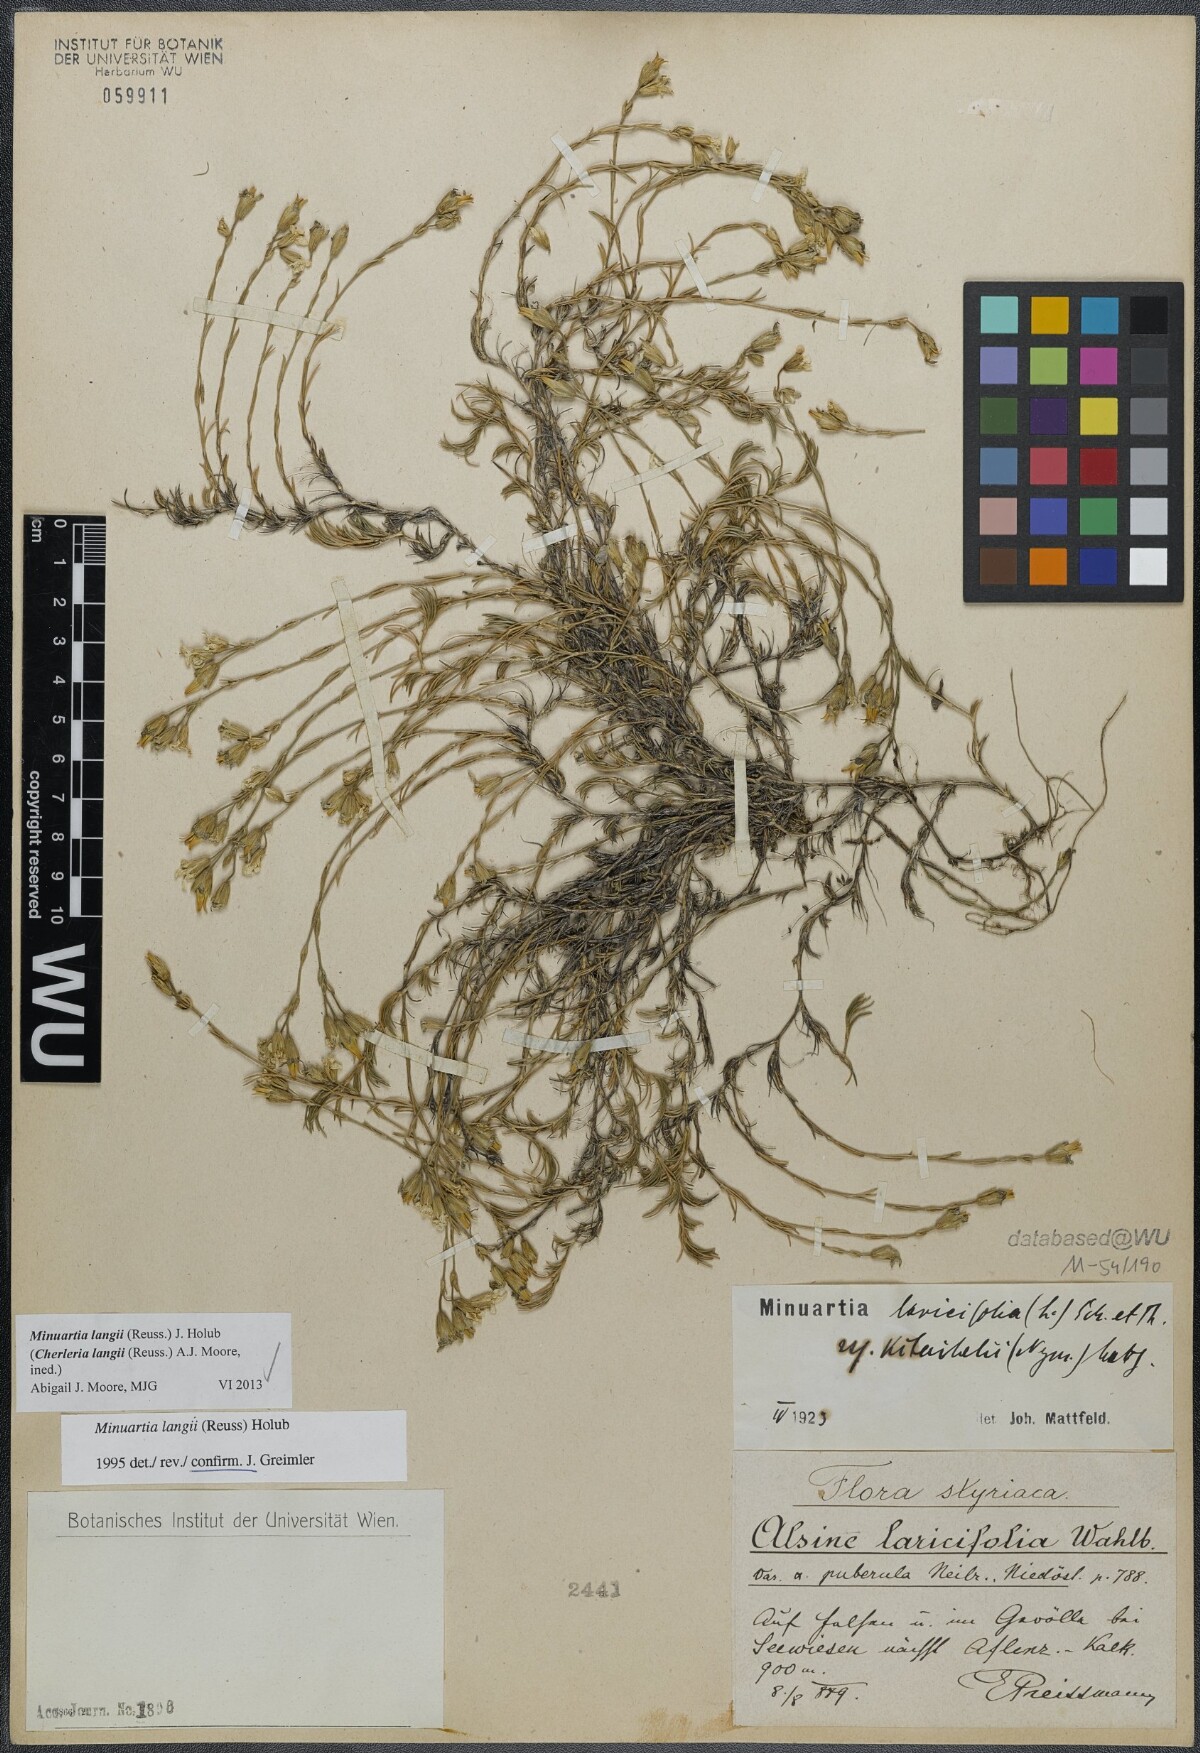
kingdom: Plantae
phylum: Tracheophyta
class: Magnoliopsida
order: Caryophyllales
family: Caryophyllaceae
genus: Cherleria
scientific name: Cherleria langii
